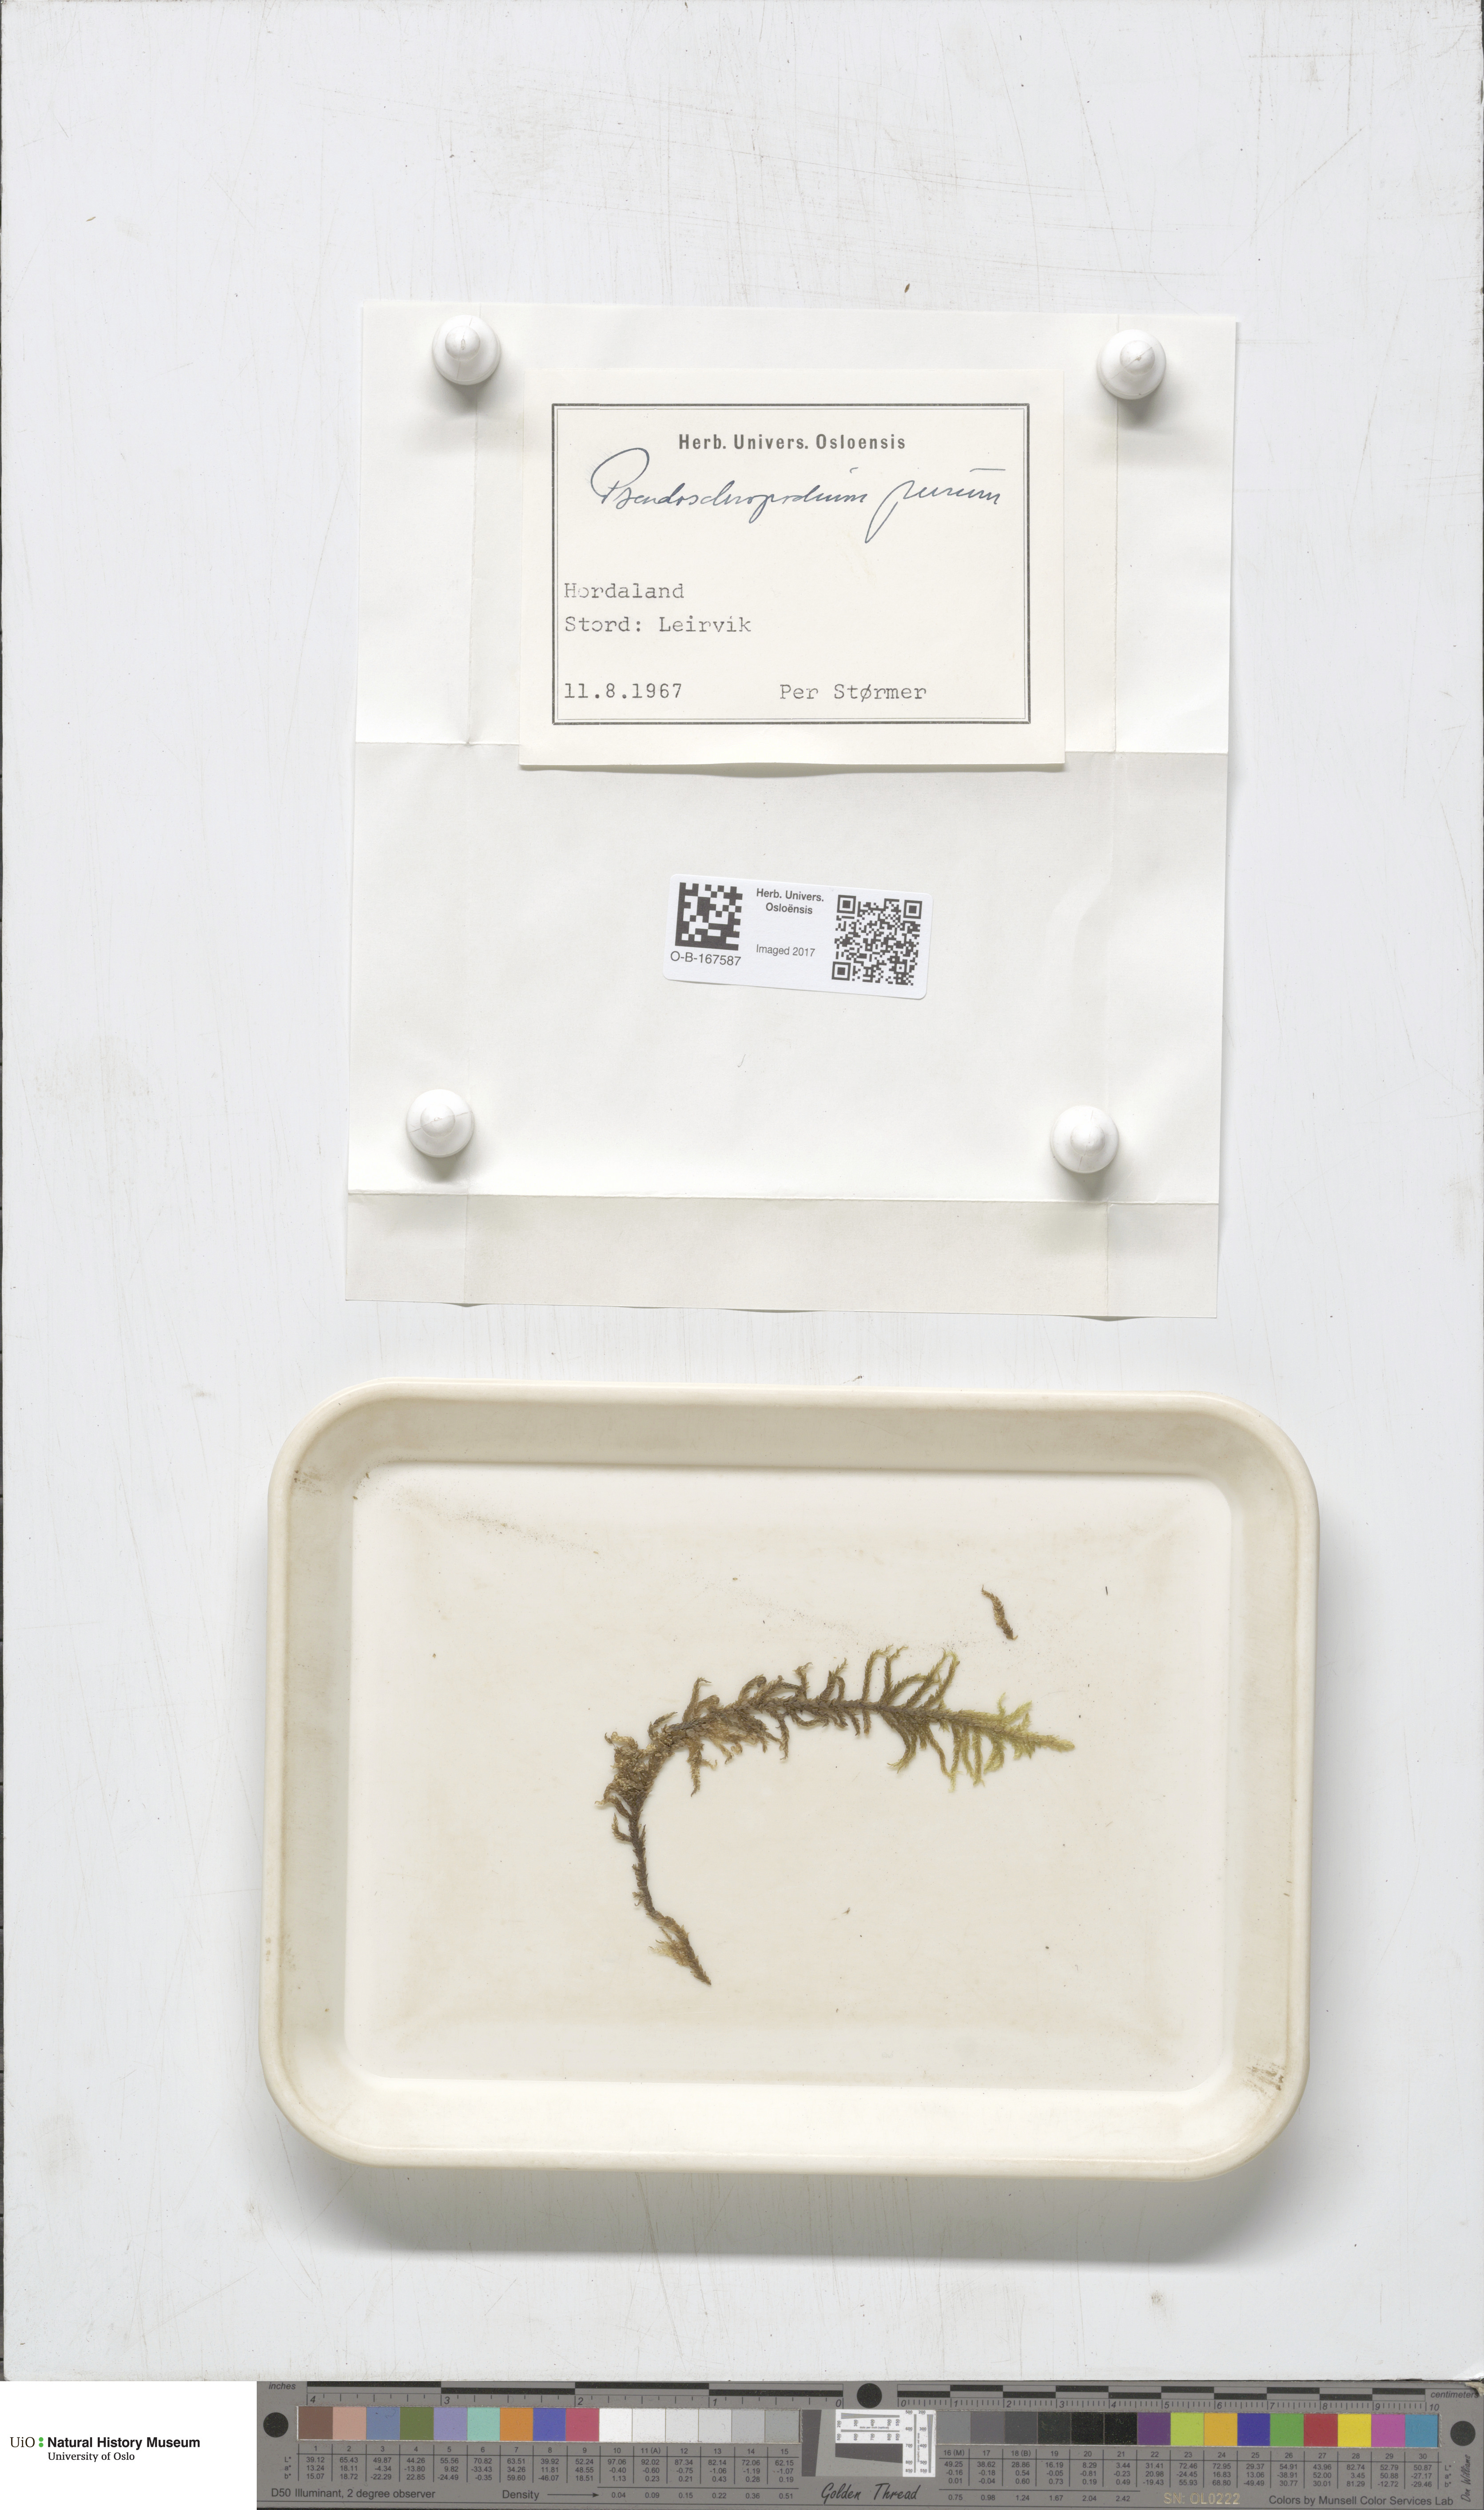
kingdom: Plantae
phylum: Bryophyta
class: Bryopsida
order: Hypnales
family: Brachytheciaceae
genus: Pseudoscleropodium
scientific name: Pseudoscleropodium purum
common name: Neat feather-moss
